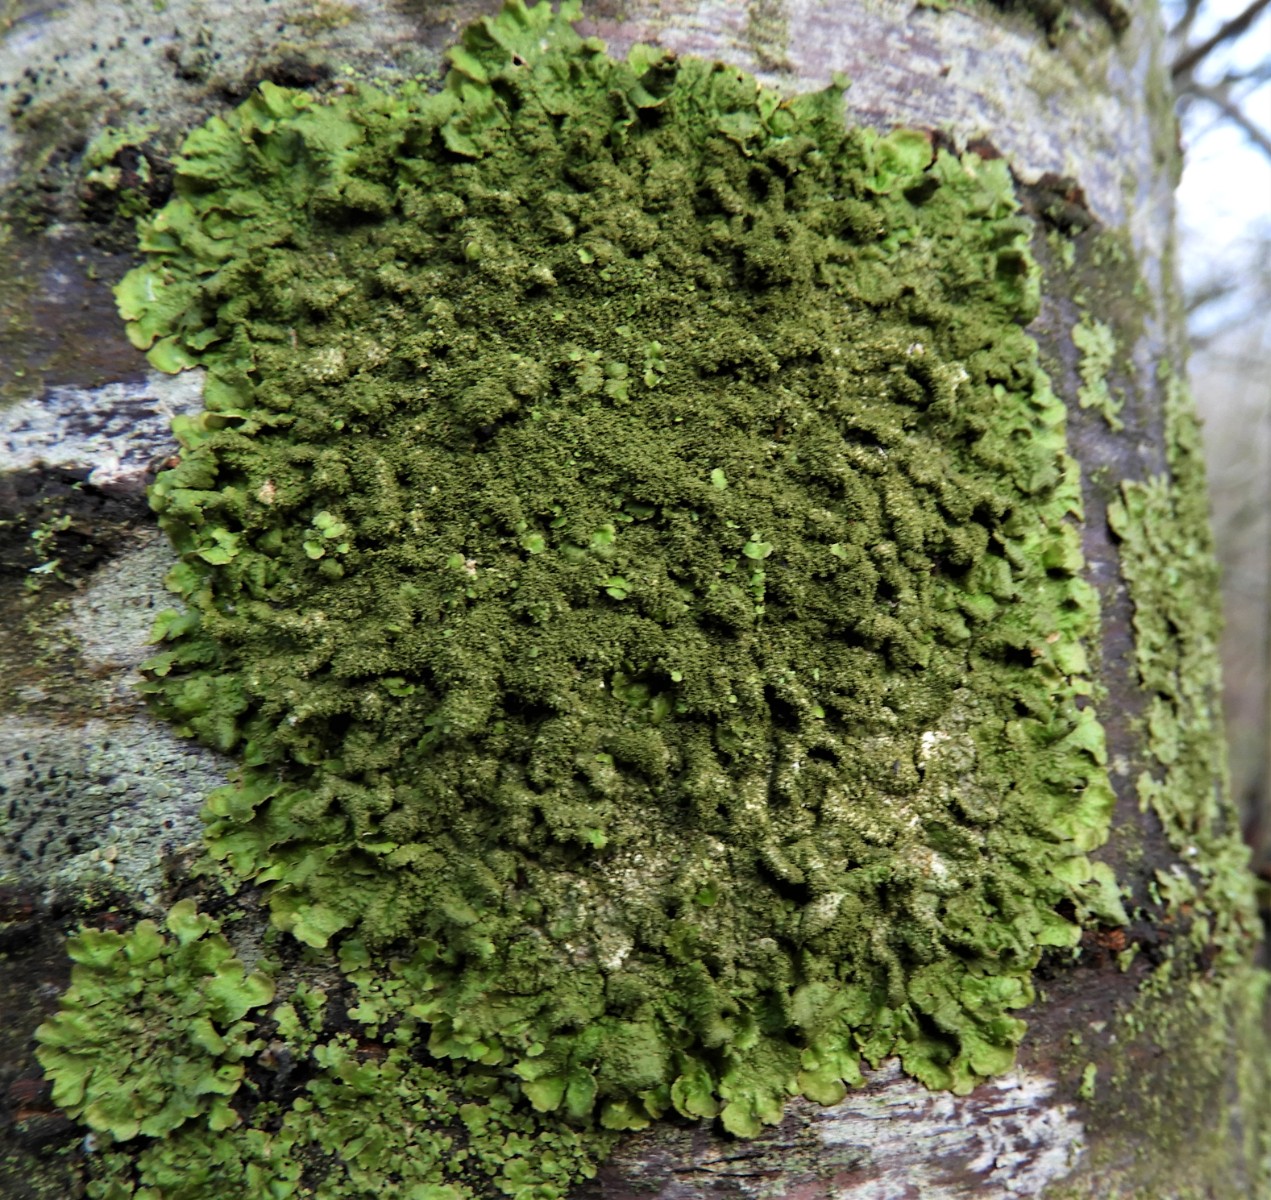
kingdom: Fungi
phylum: Ascomycota
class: Lecanoromycetes
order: Lecanorales
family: Parmeliaceae
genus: Melanelixia
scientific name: Melanelixia glabratula
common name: glinsende skållav
